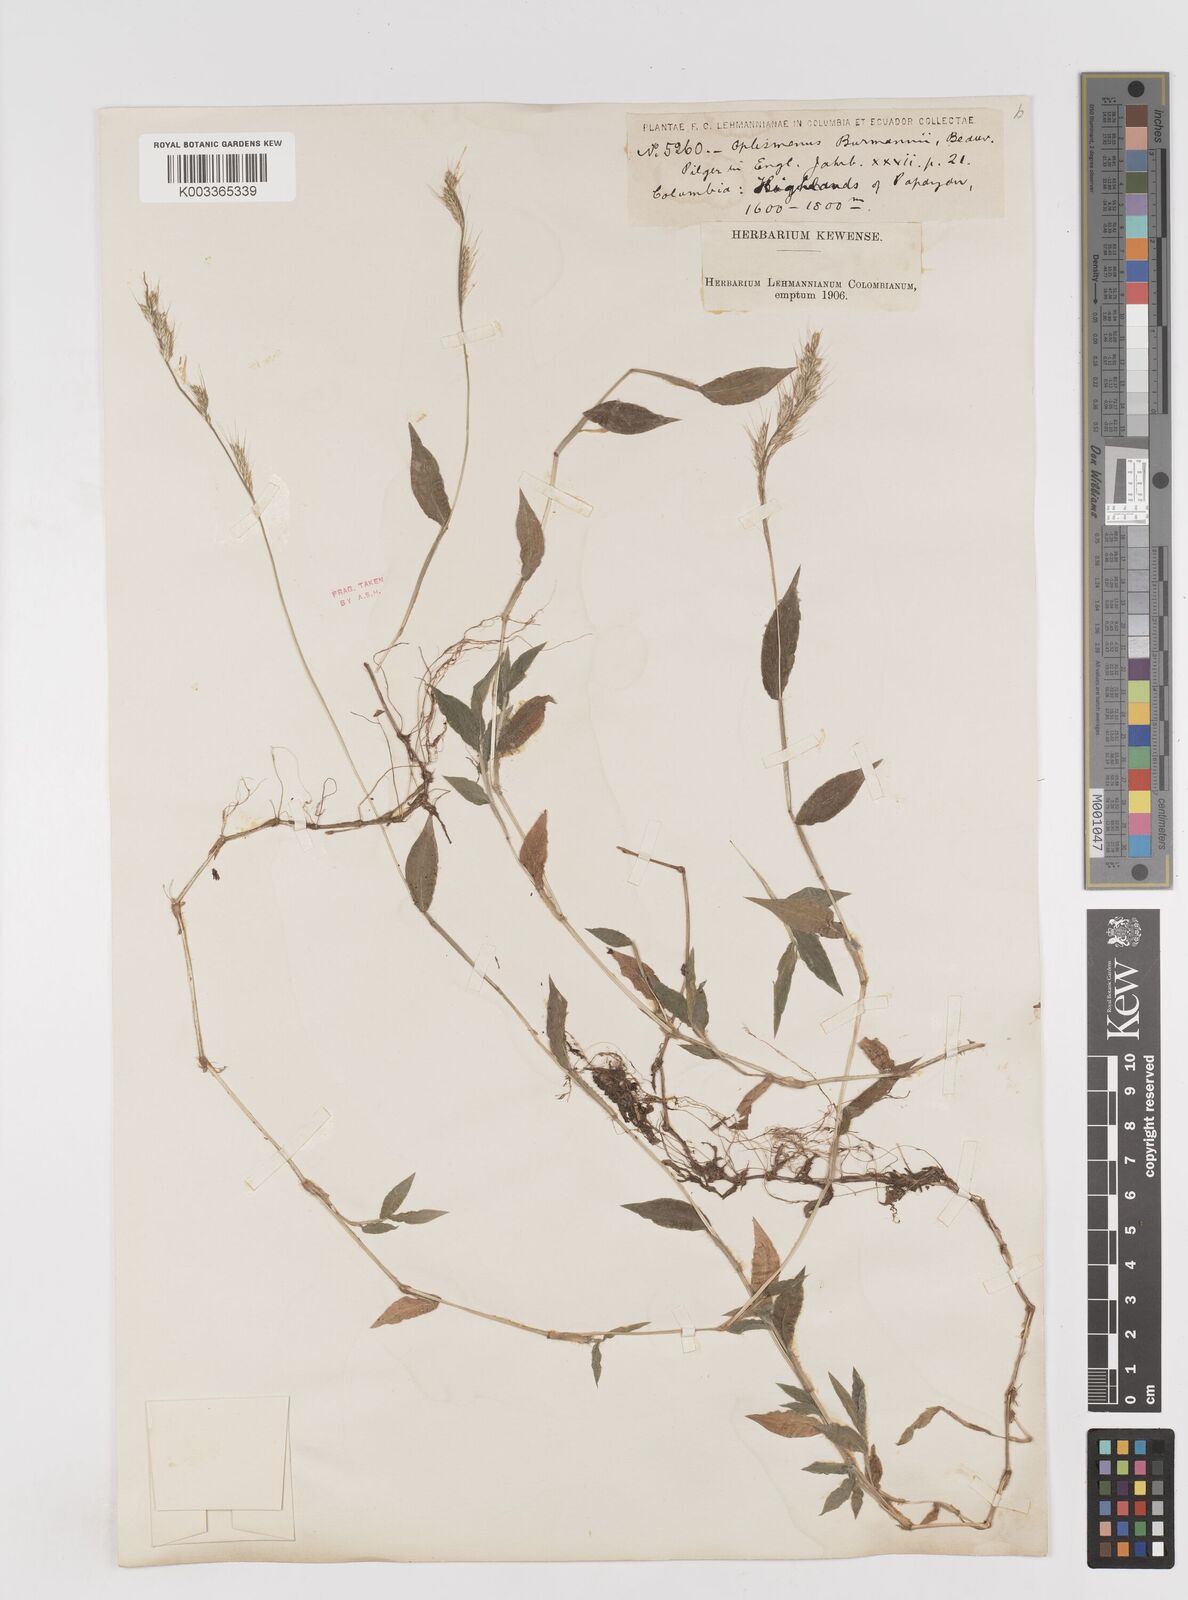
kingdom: Plantae
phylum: Tracheophyta
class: Liliopsida
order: Poales
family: Poaceae
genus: Oplismenus
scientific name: Oplismenus burmanni
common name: Burmann's basketgrass
